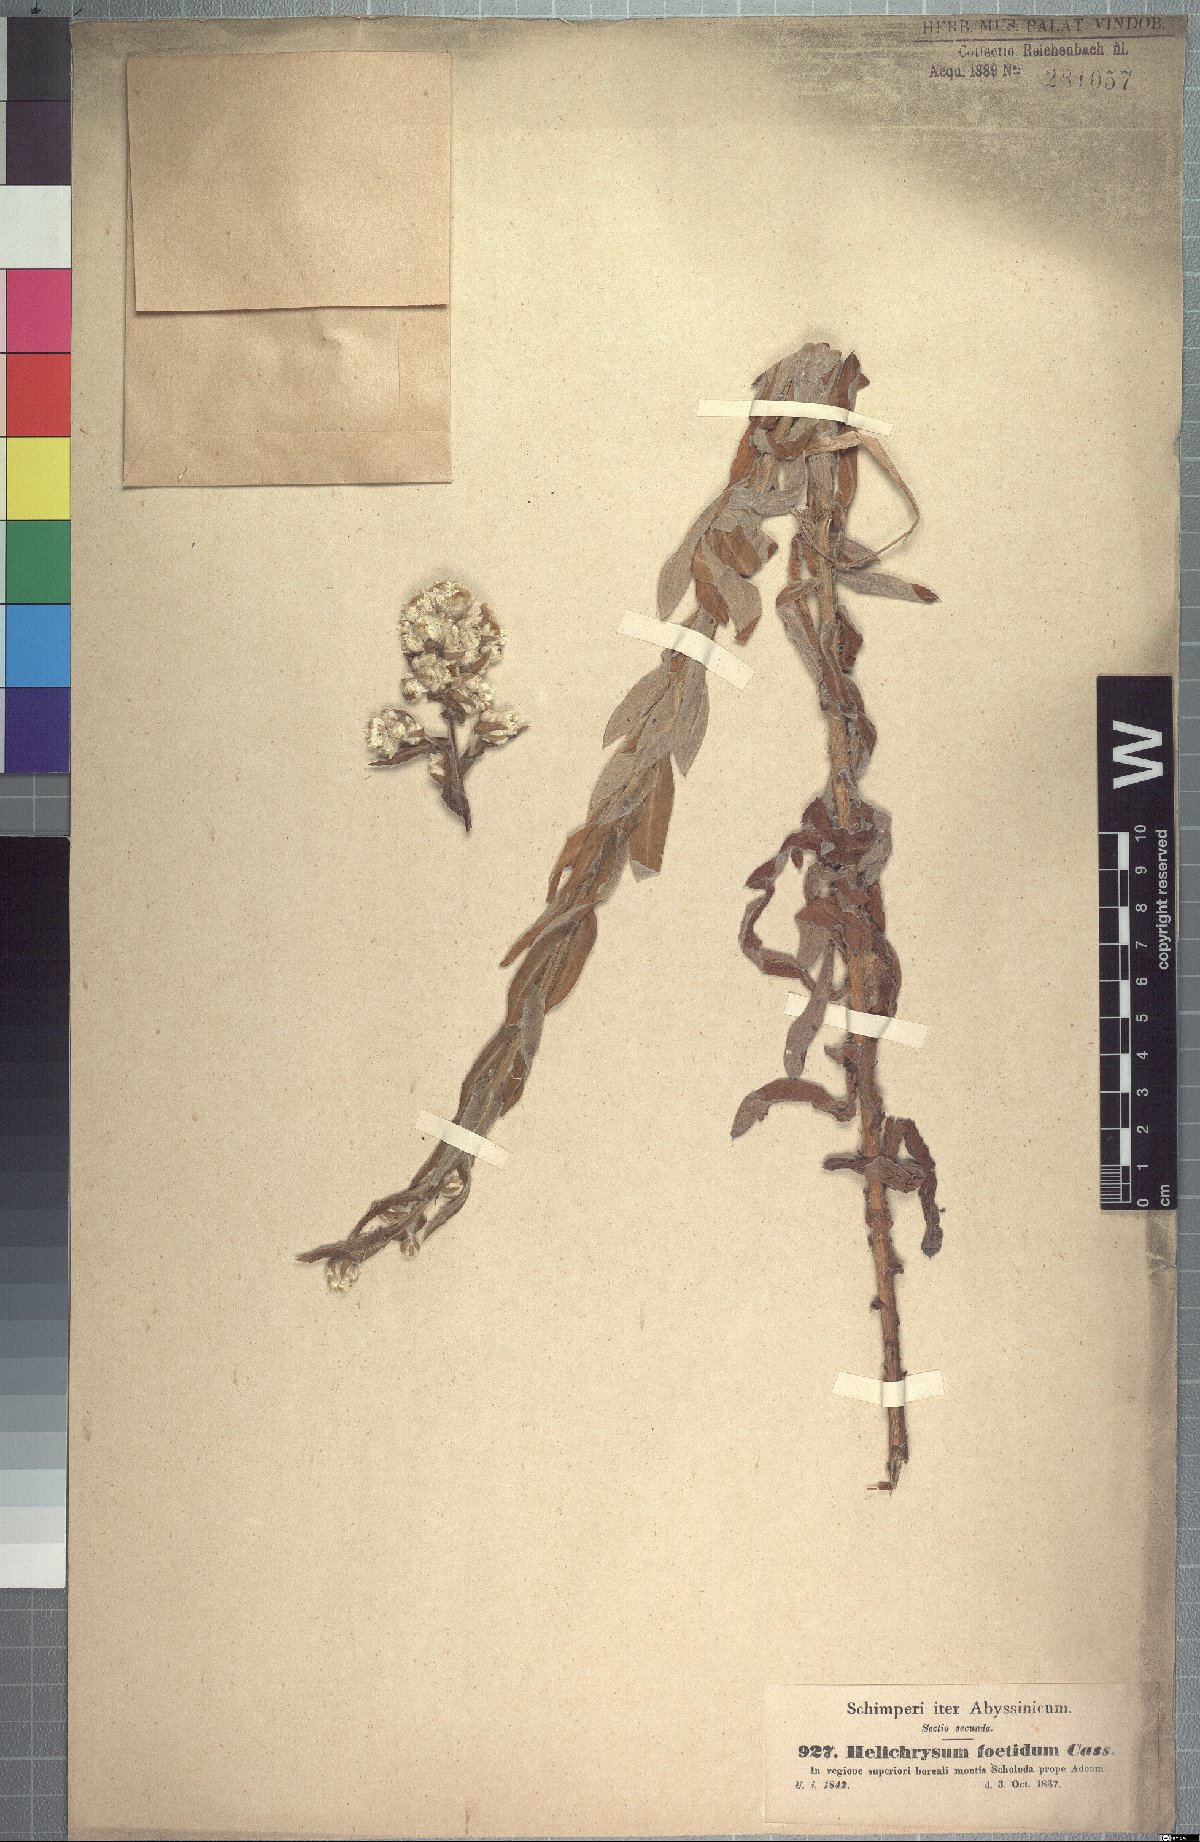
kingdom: Plantae
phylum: Tracheophyta
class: Magnoliopsida
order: Asterales
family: Asteraceae
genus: Helichrysum
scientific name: Helichrysum foetidum
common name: Stinking everlasting
